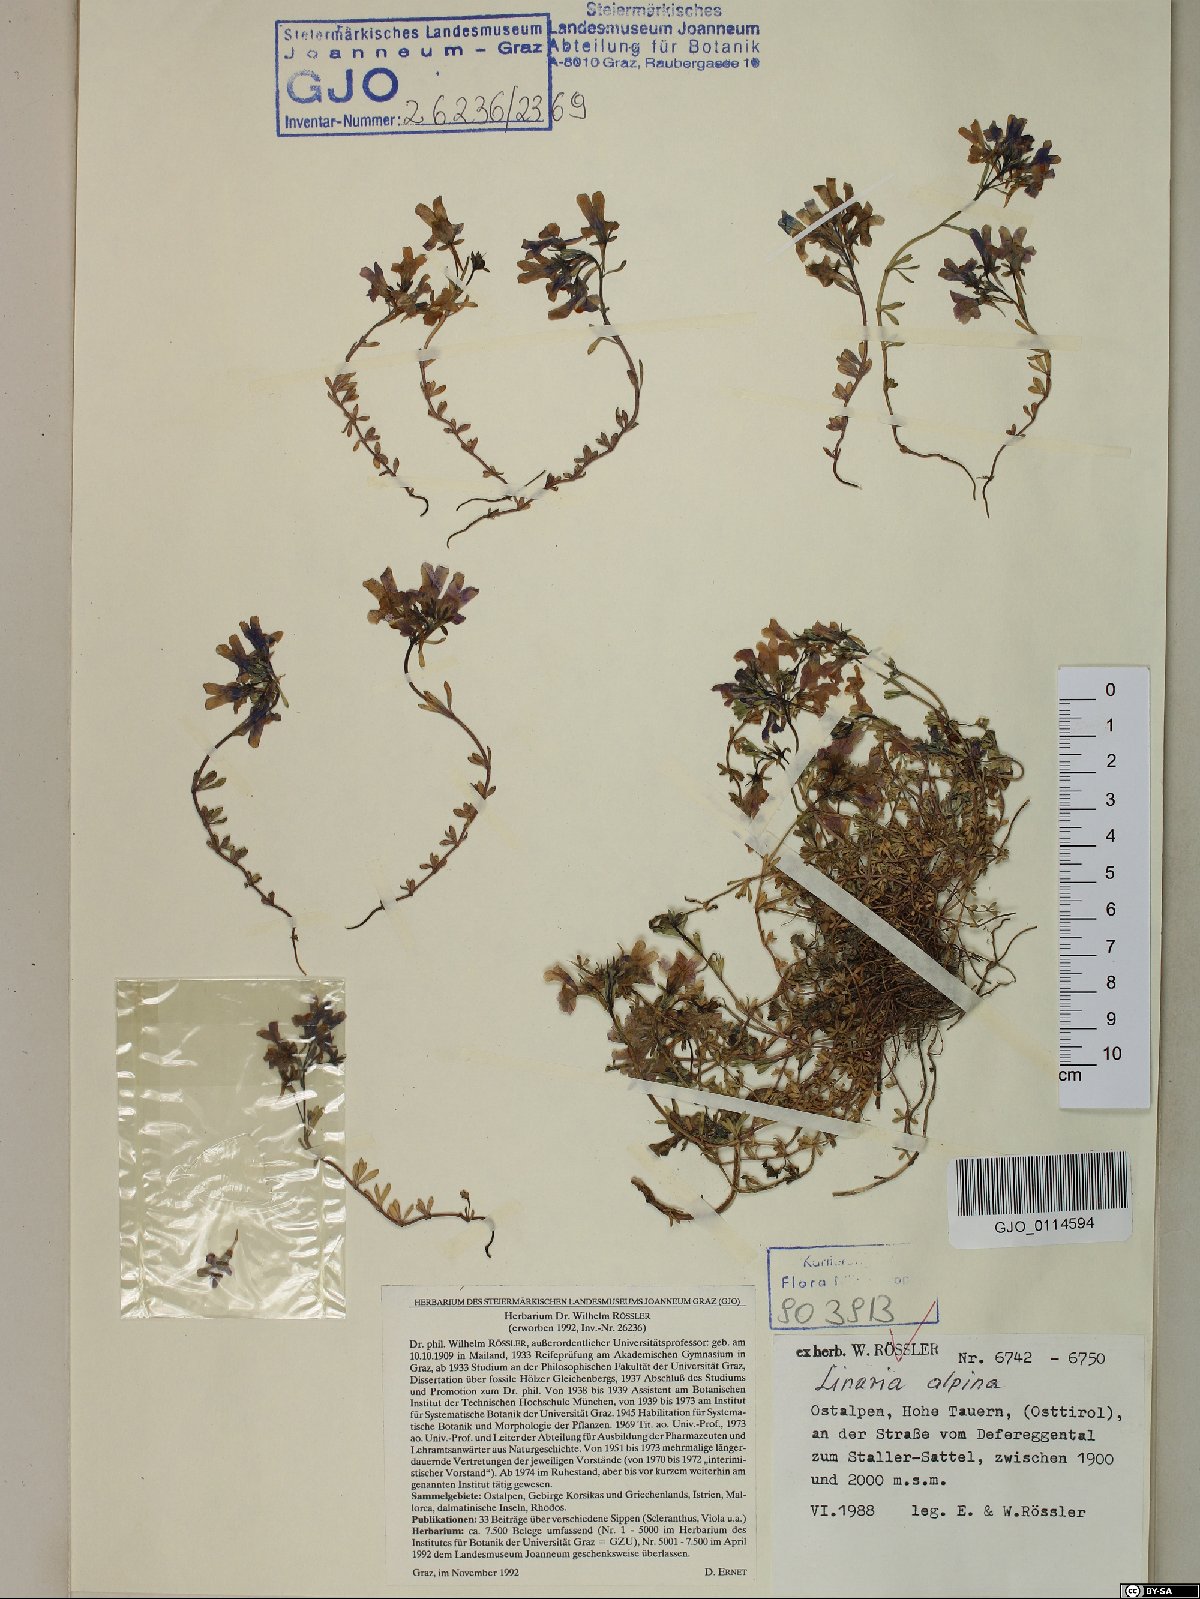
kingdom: Plantae
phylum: Tracheophyta
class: Magnoliopsida
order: Lamiales
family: Plantaginaceae
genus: Linaria
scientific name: Linaria alpina
